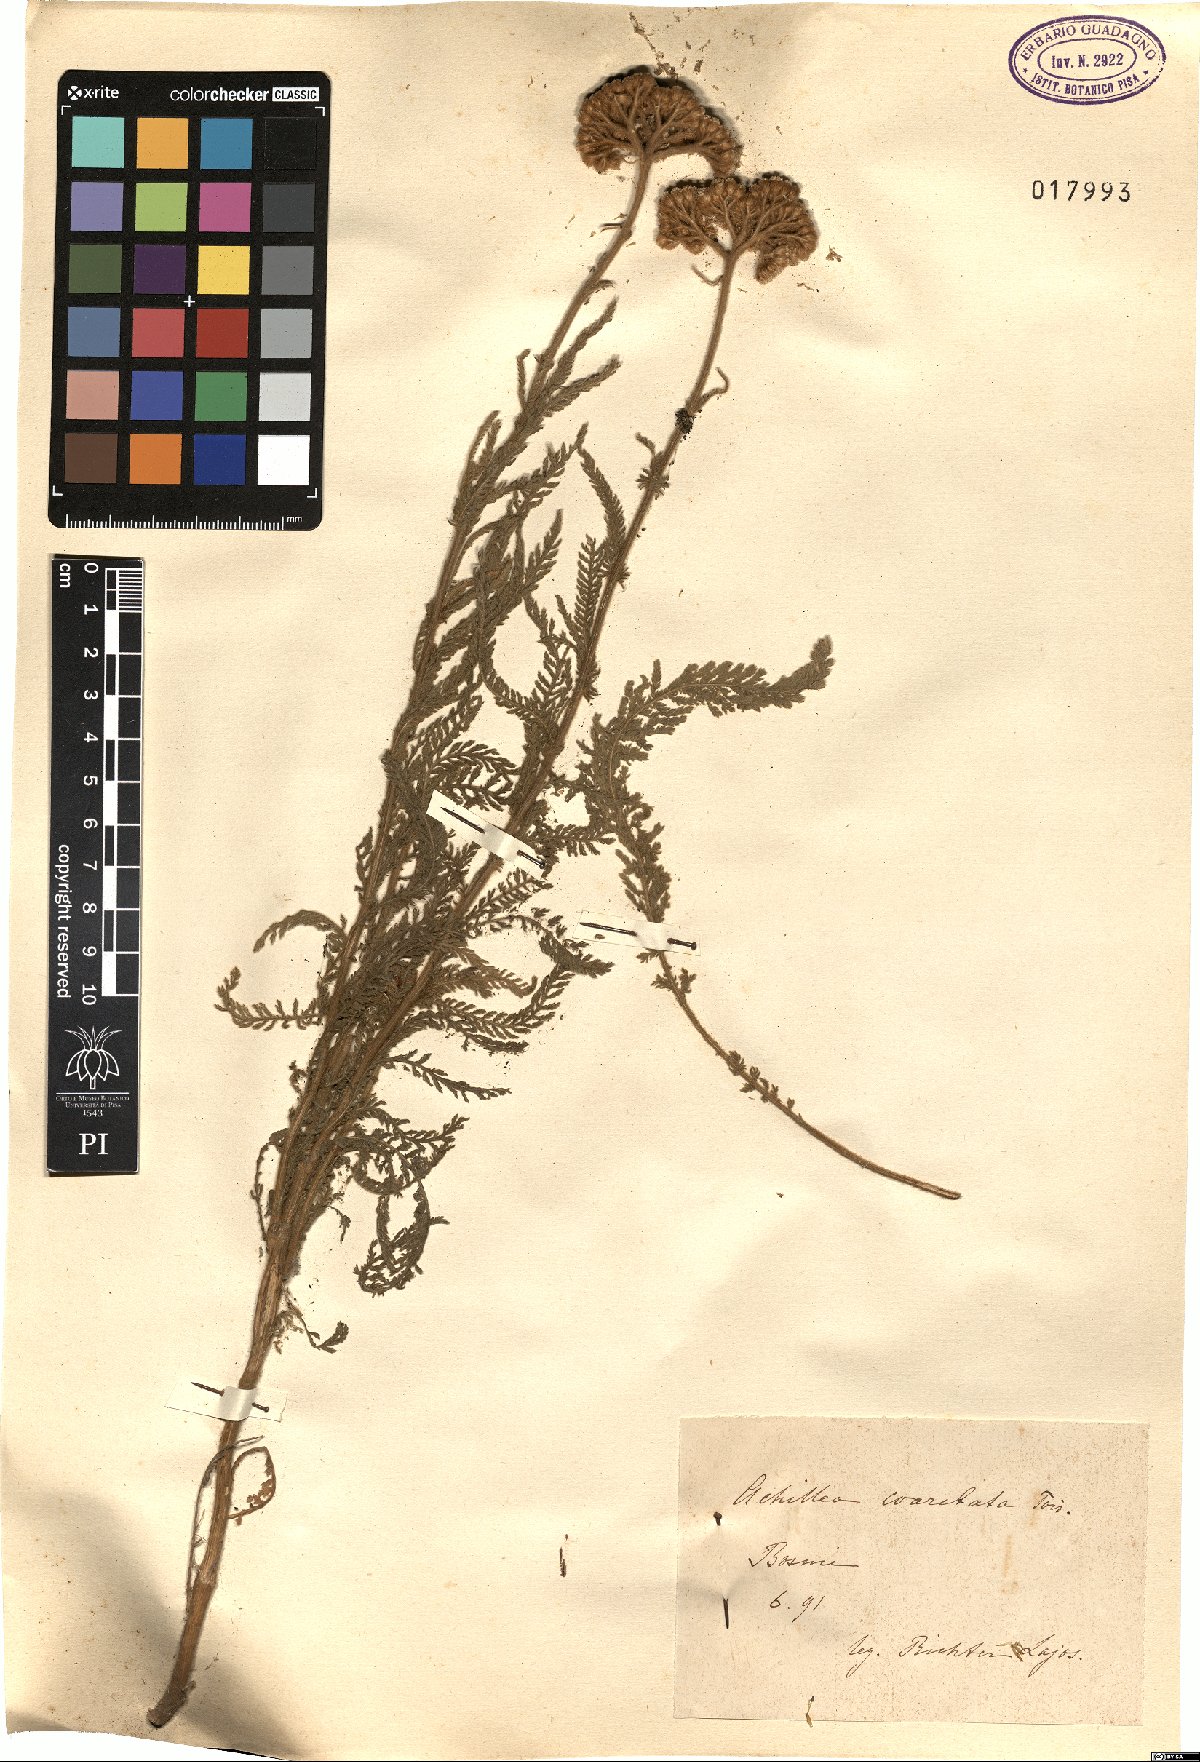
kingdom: Plantae
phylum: Tracheophyta
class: Magnoliopsida
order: Asterales
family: Asteraceae
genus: Achillea
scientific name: Achillea coarctata
